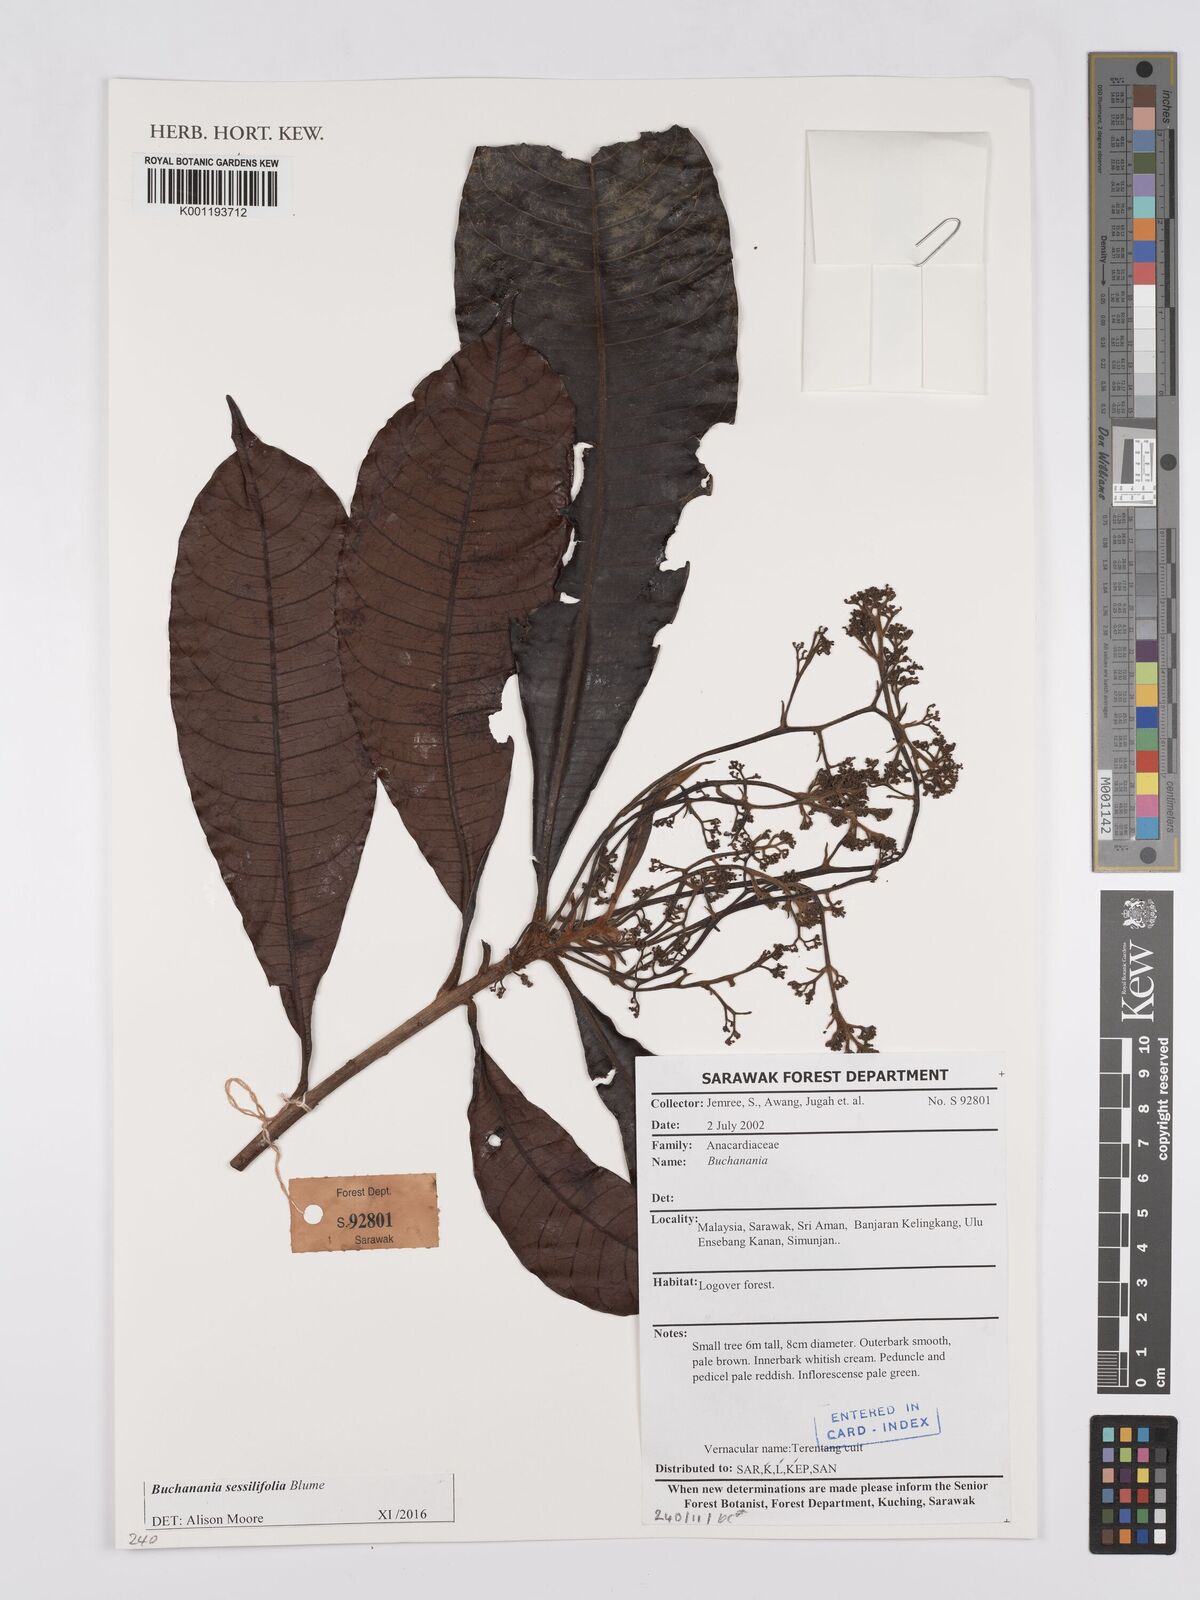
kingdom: Plantae
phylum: Tracheophyta
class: Magnoliopsida
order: Sapindales
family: Anacardiaceae
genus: Buchanania
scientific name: Buchanania sessifolia
